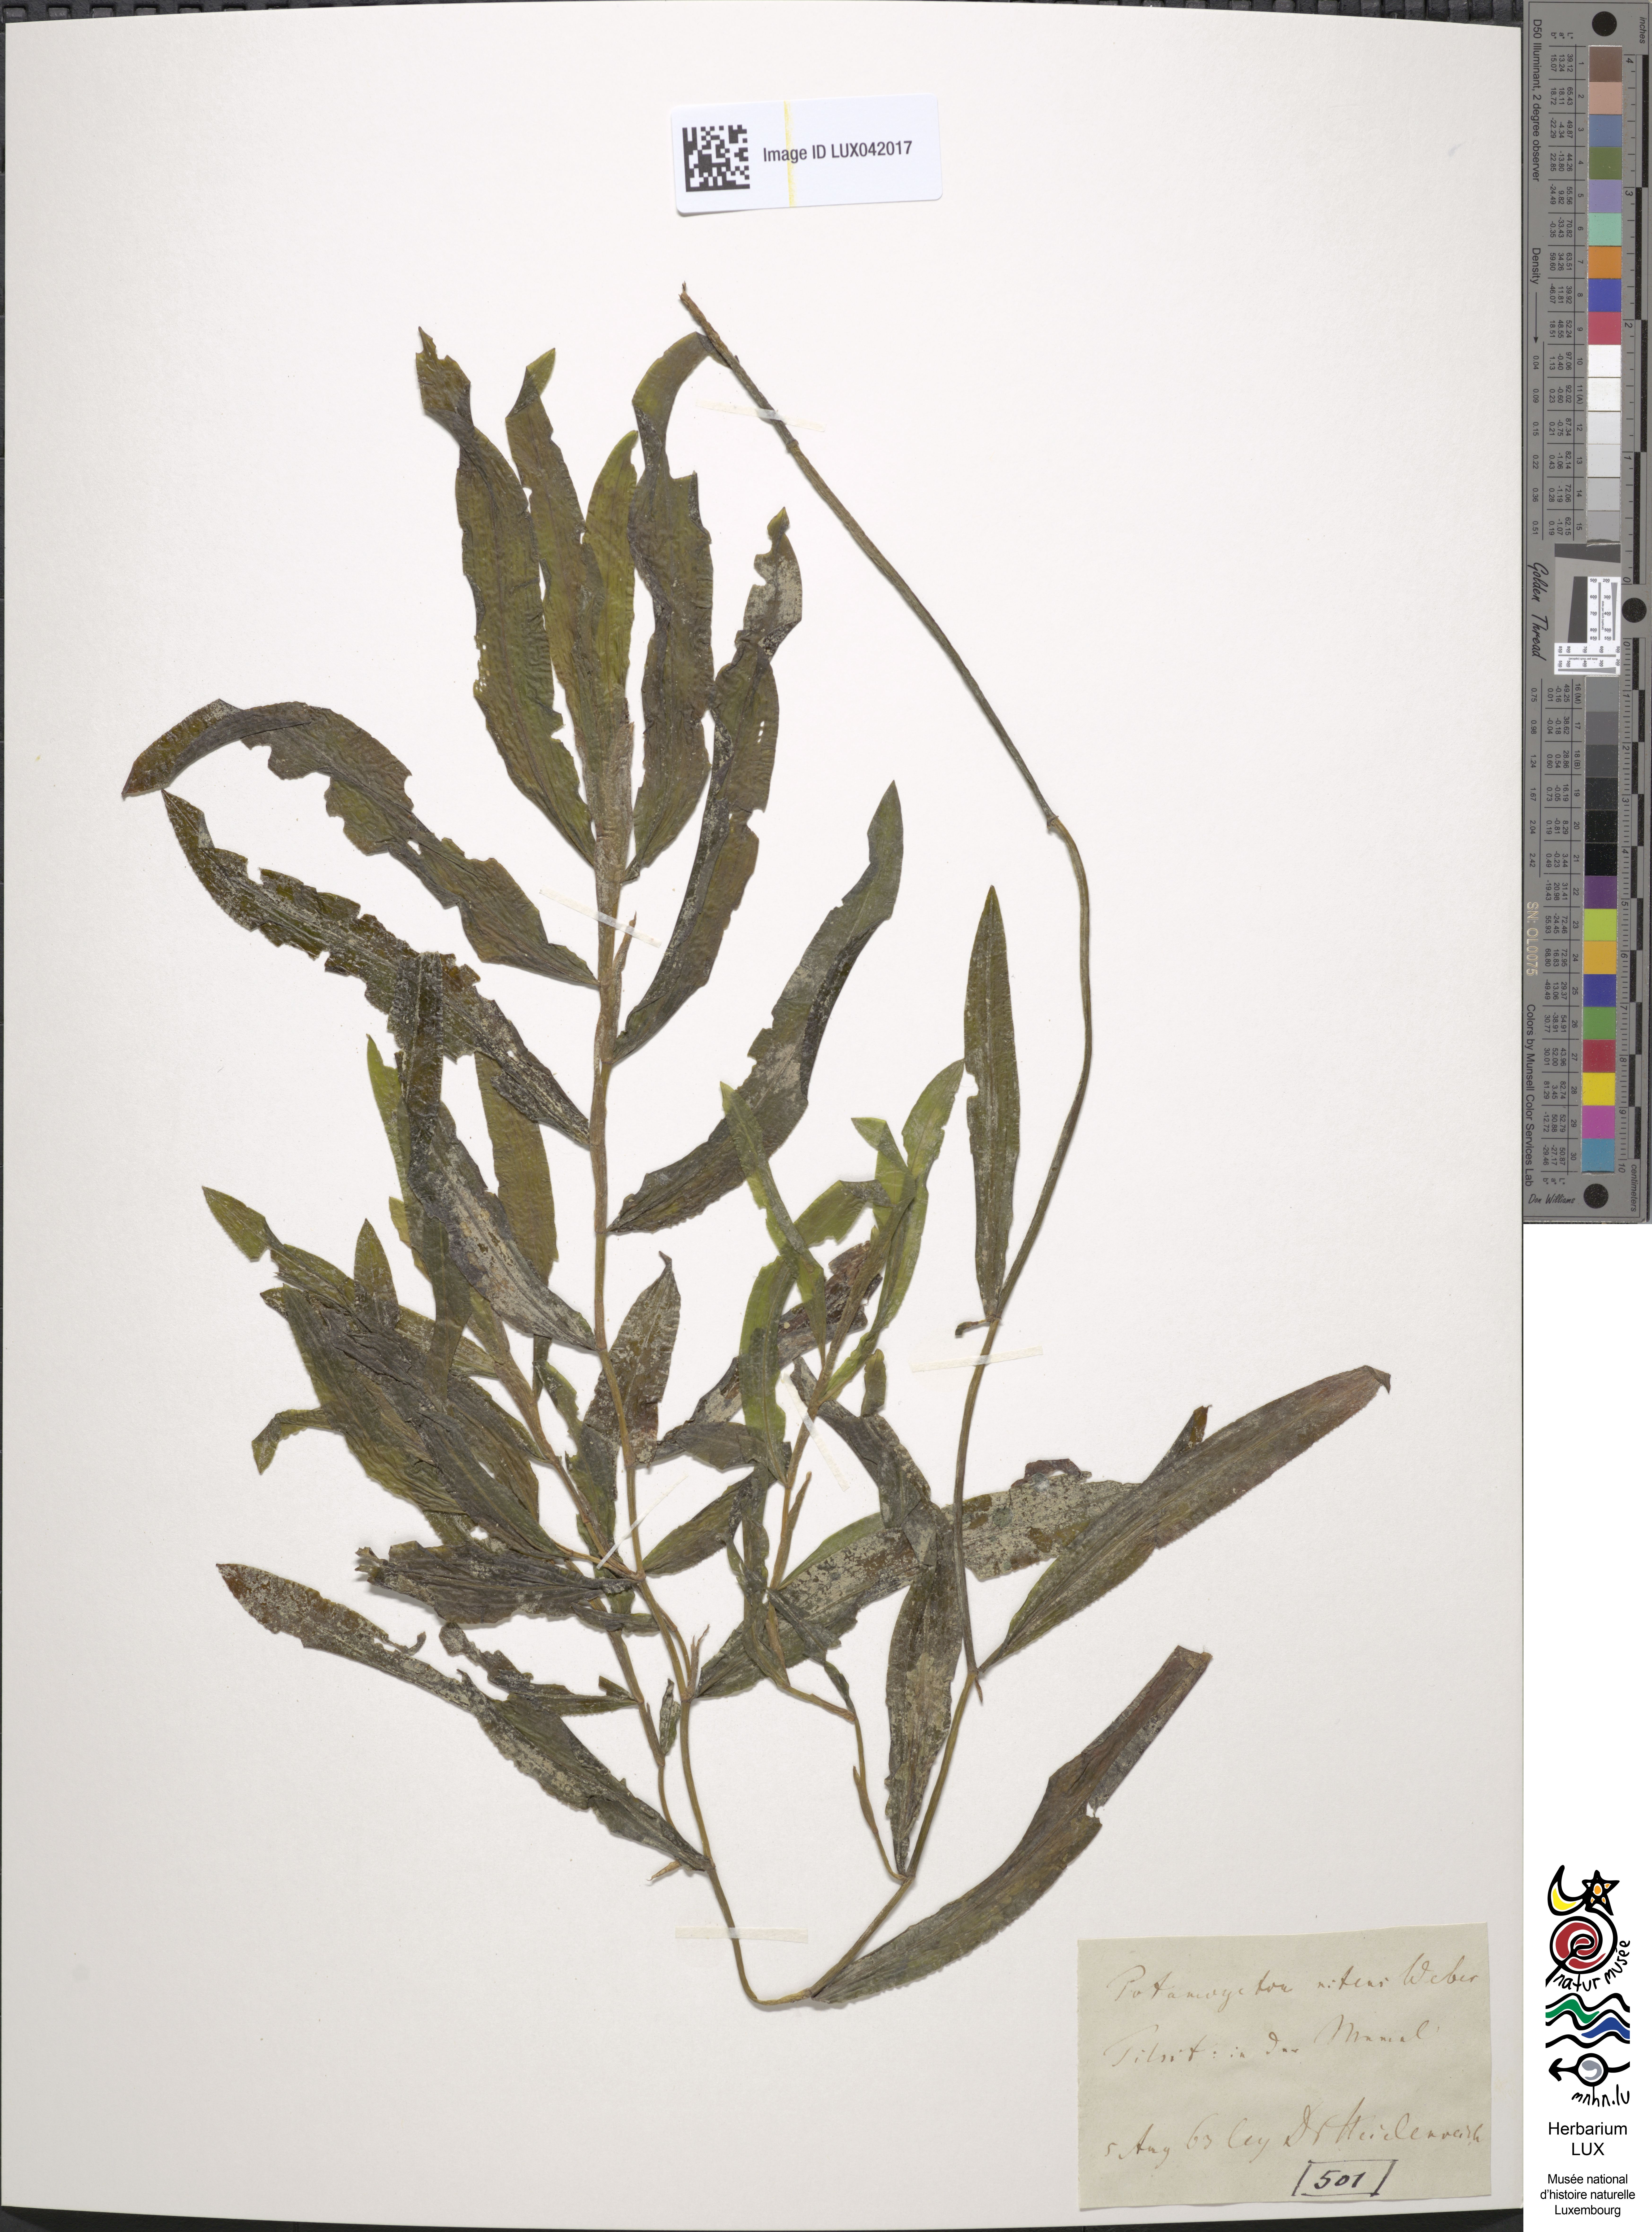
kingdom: Plantae
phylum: Tracheophyta
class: Liliopsida
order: Alismatales
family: Potamogetonaceae
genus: Potamogeton
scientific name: Potamogeton nitens
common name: Pondweed
